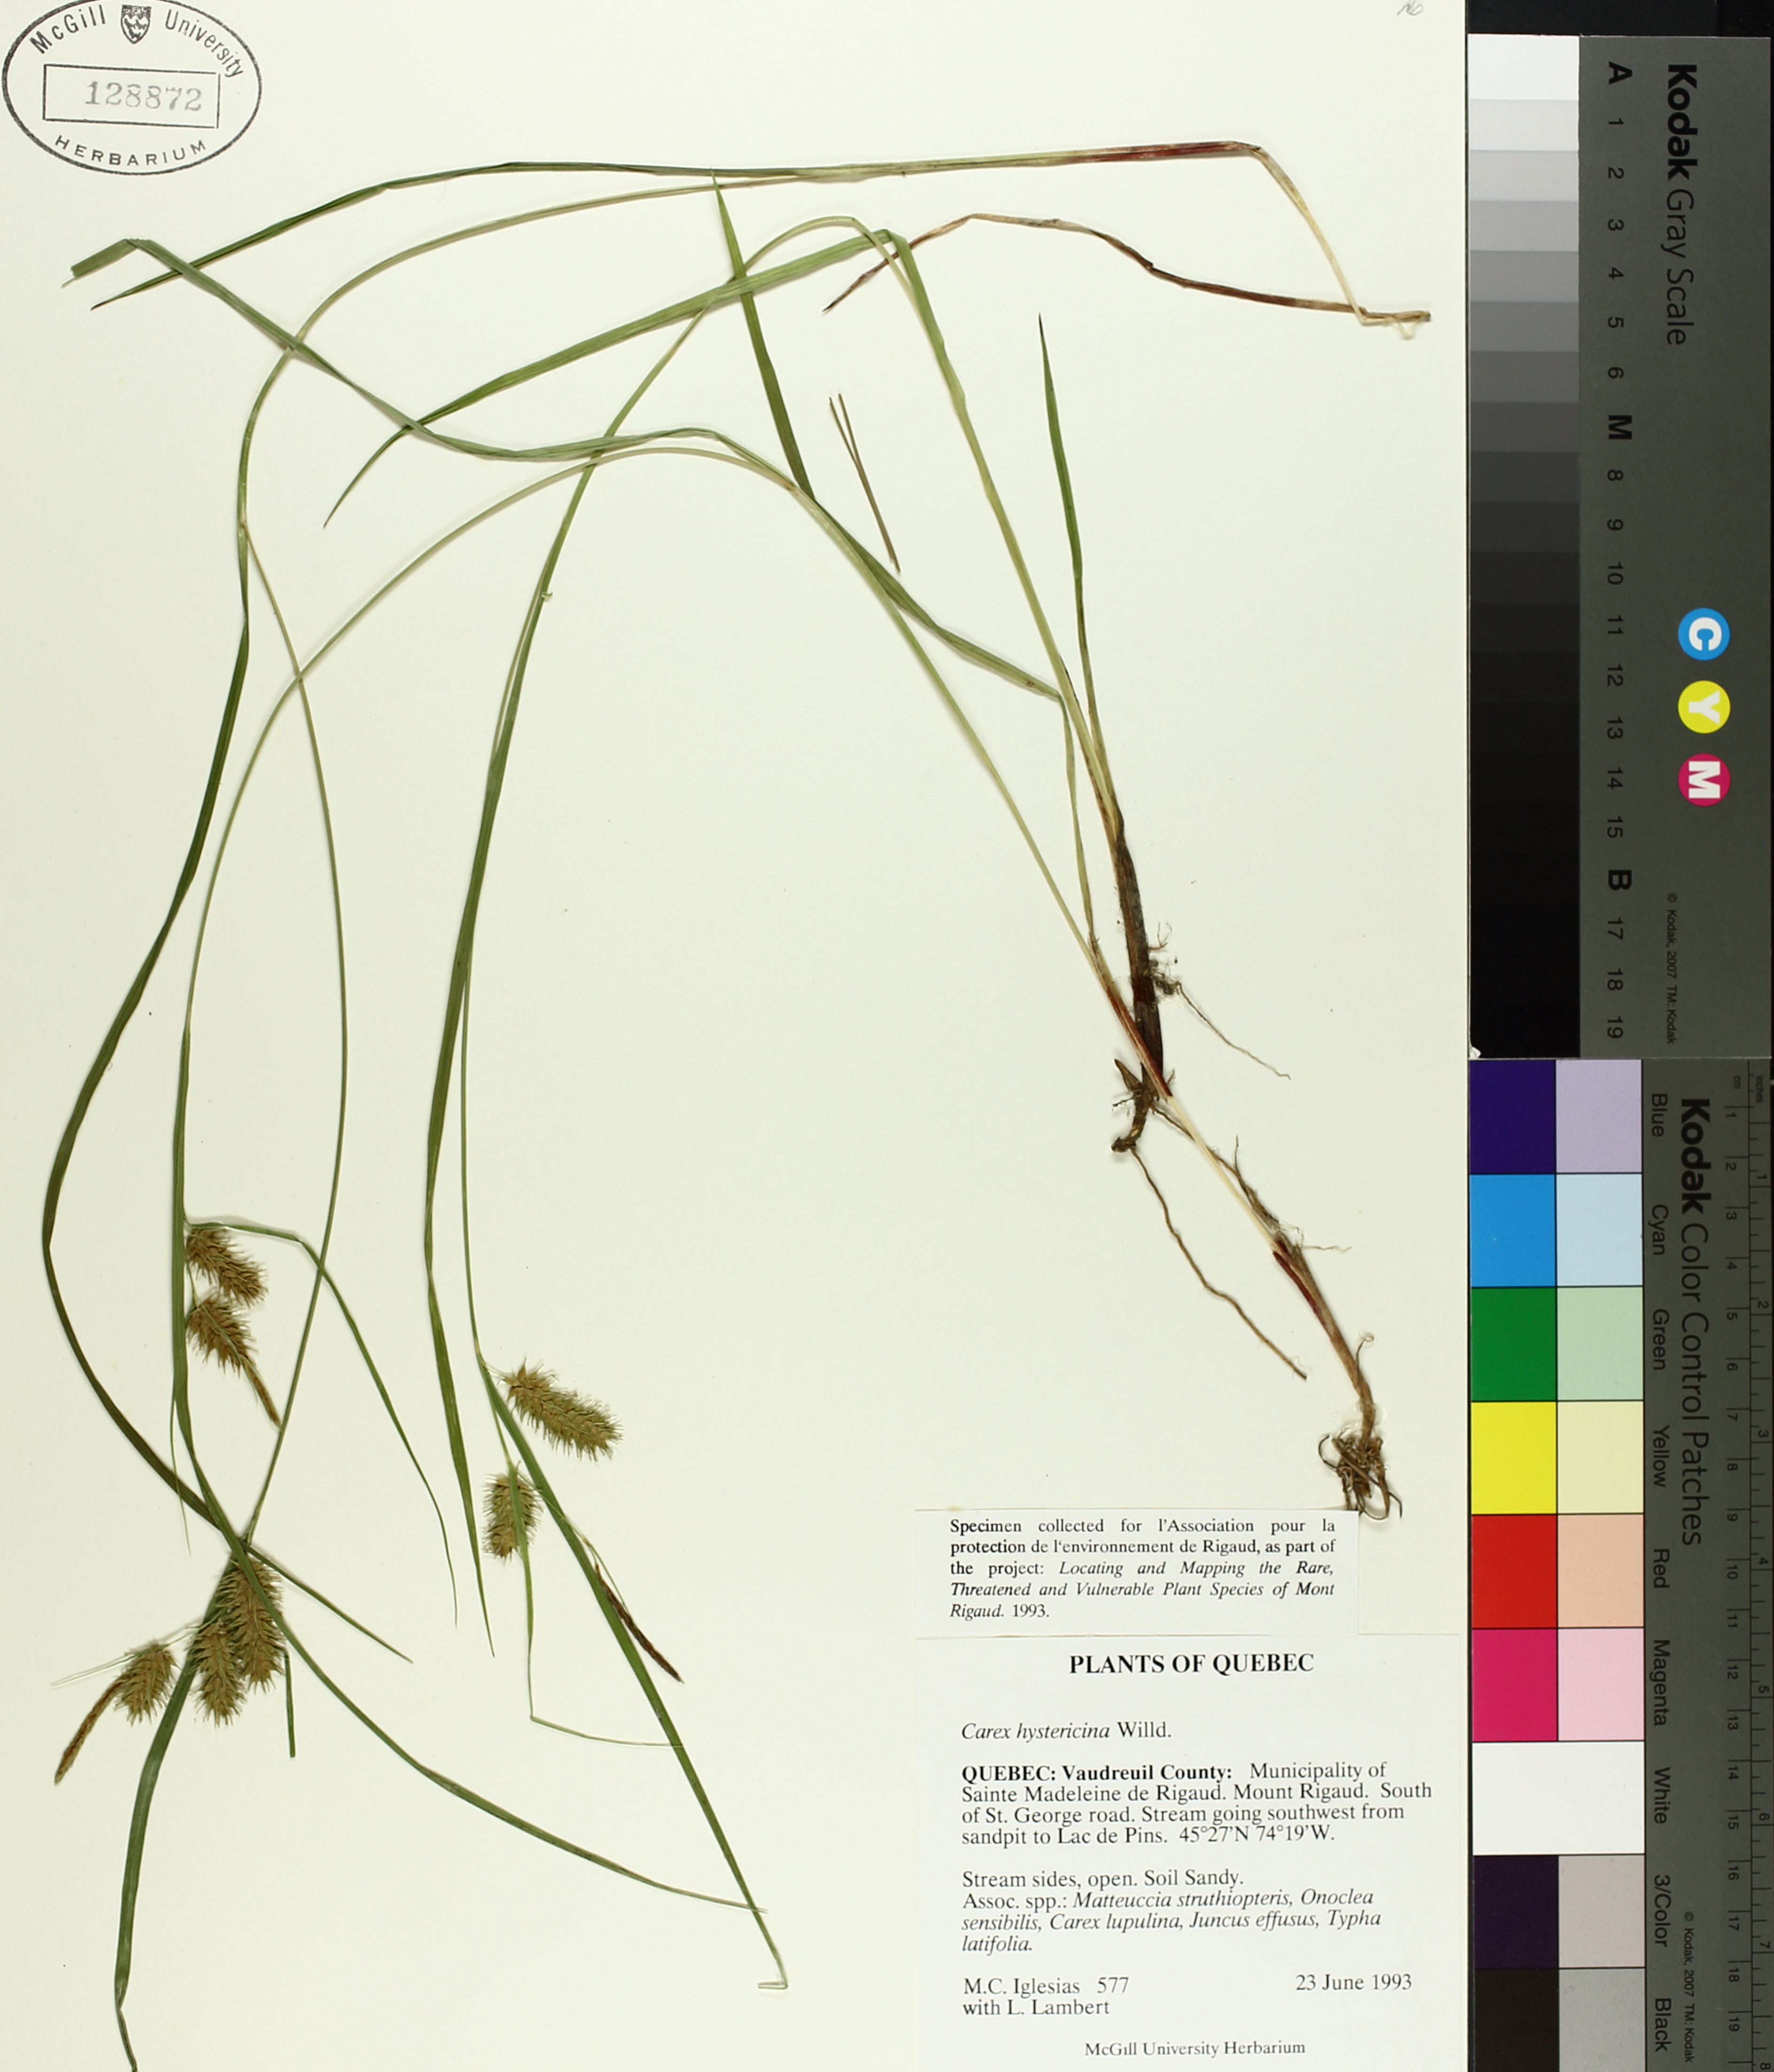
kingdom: Plantae
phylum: Tracheophyta
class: Liliopsida
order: Poales
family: Cyperaceae
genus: Carex
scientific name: Carex hystericina
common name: Bottlebrush sedge
